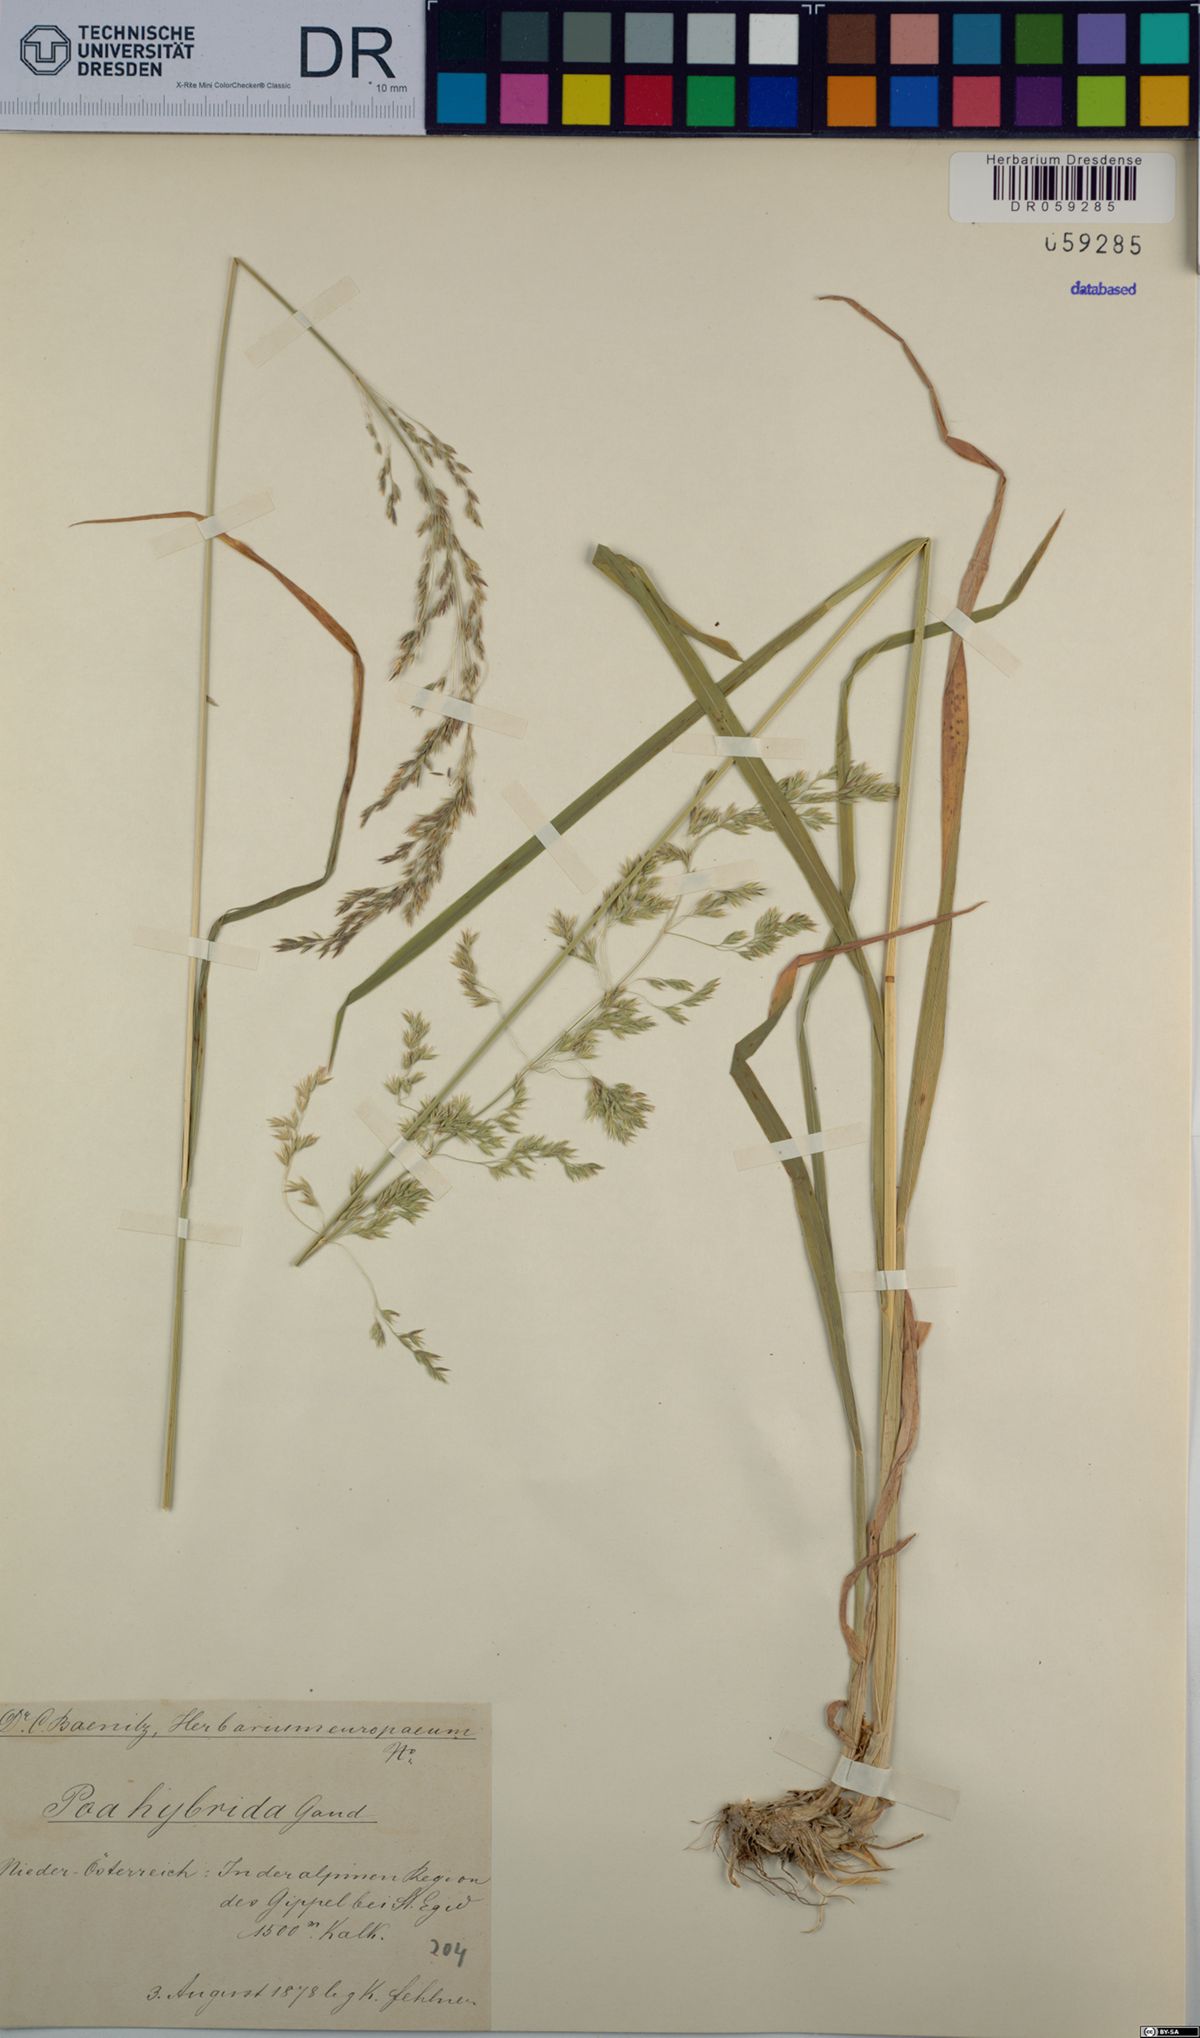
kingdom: Plantae
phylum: Tracheophyta
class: Liliopsida
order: Poales
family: Poaceae
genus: Poa
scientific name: Poa hybrida
